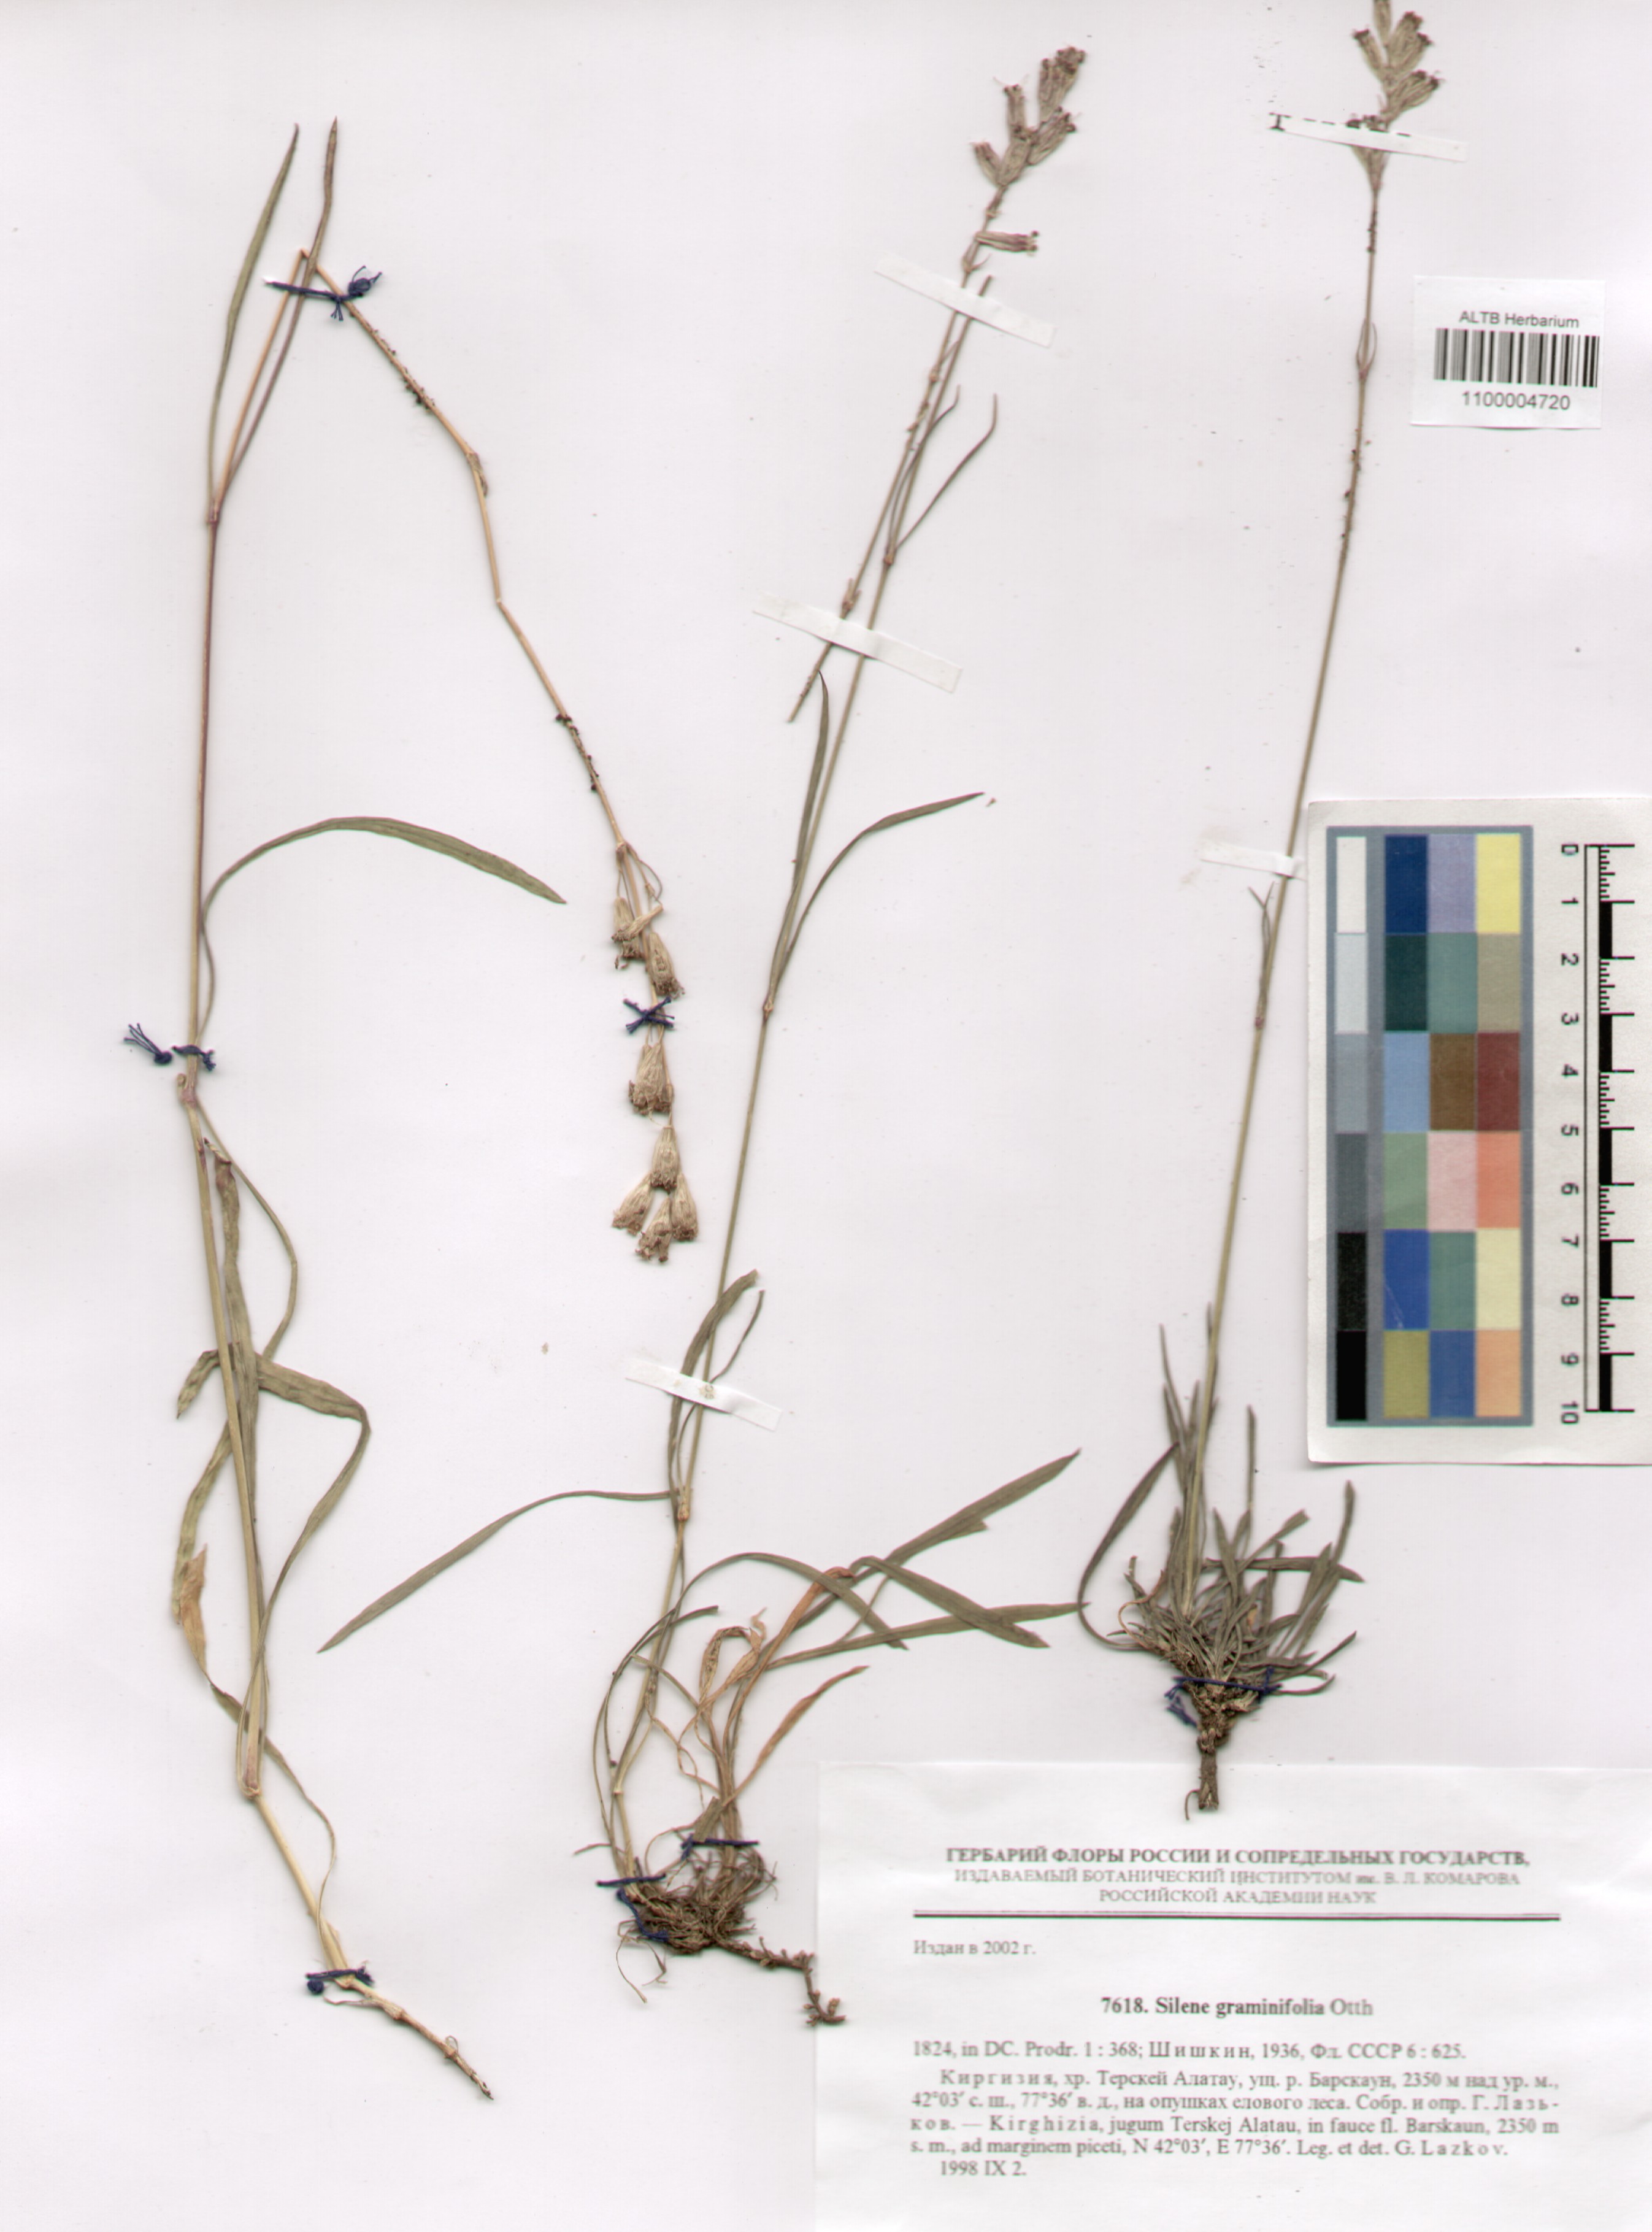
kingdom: Plantae
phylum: Tracheophyta
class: Magnoliopsida
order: Caryophyllales
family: Caryophyllaceae
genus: Silene
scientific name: Silene graminifolia
